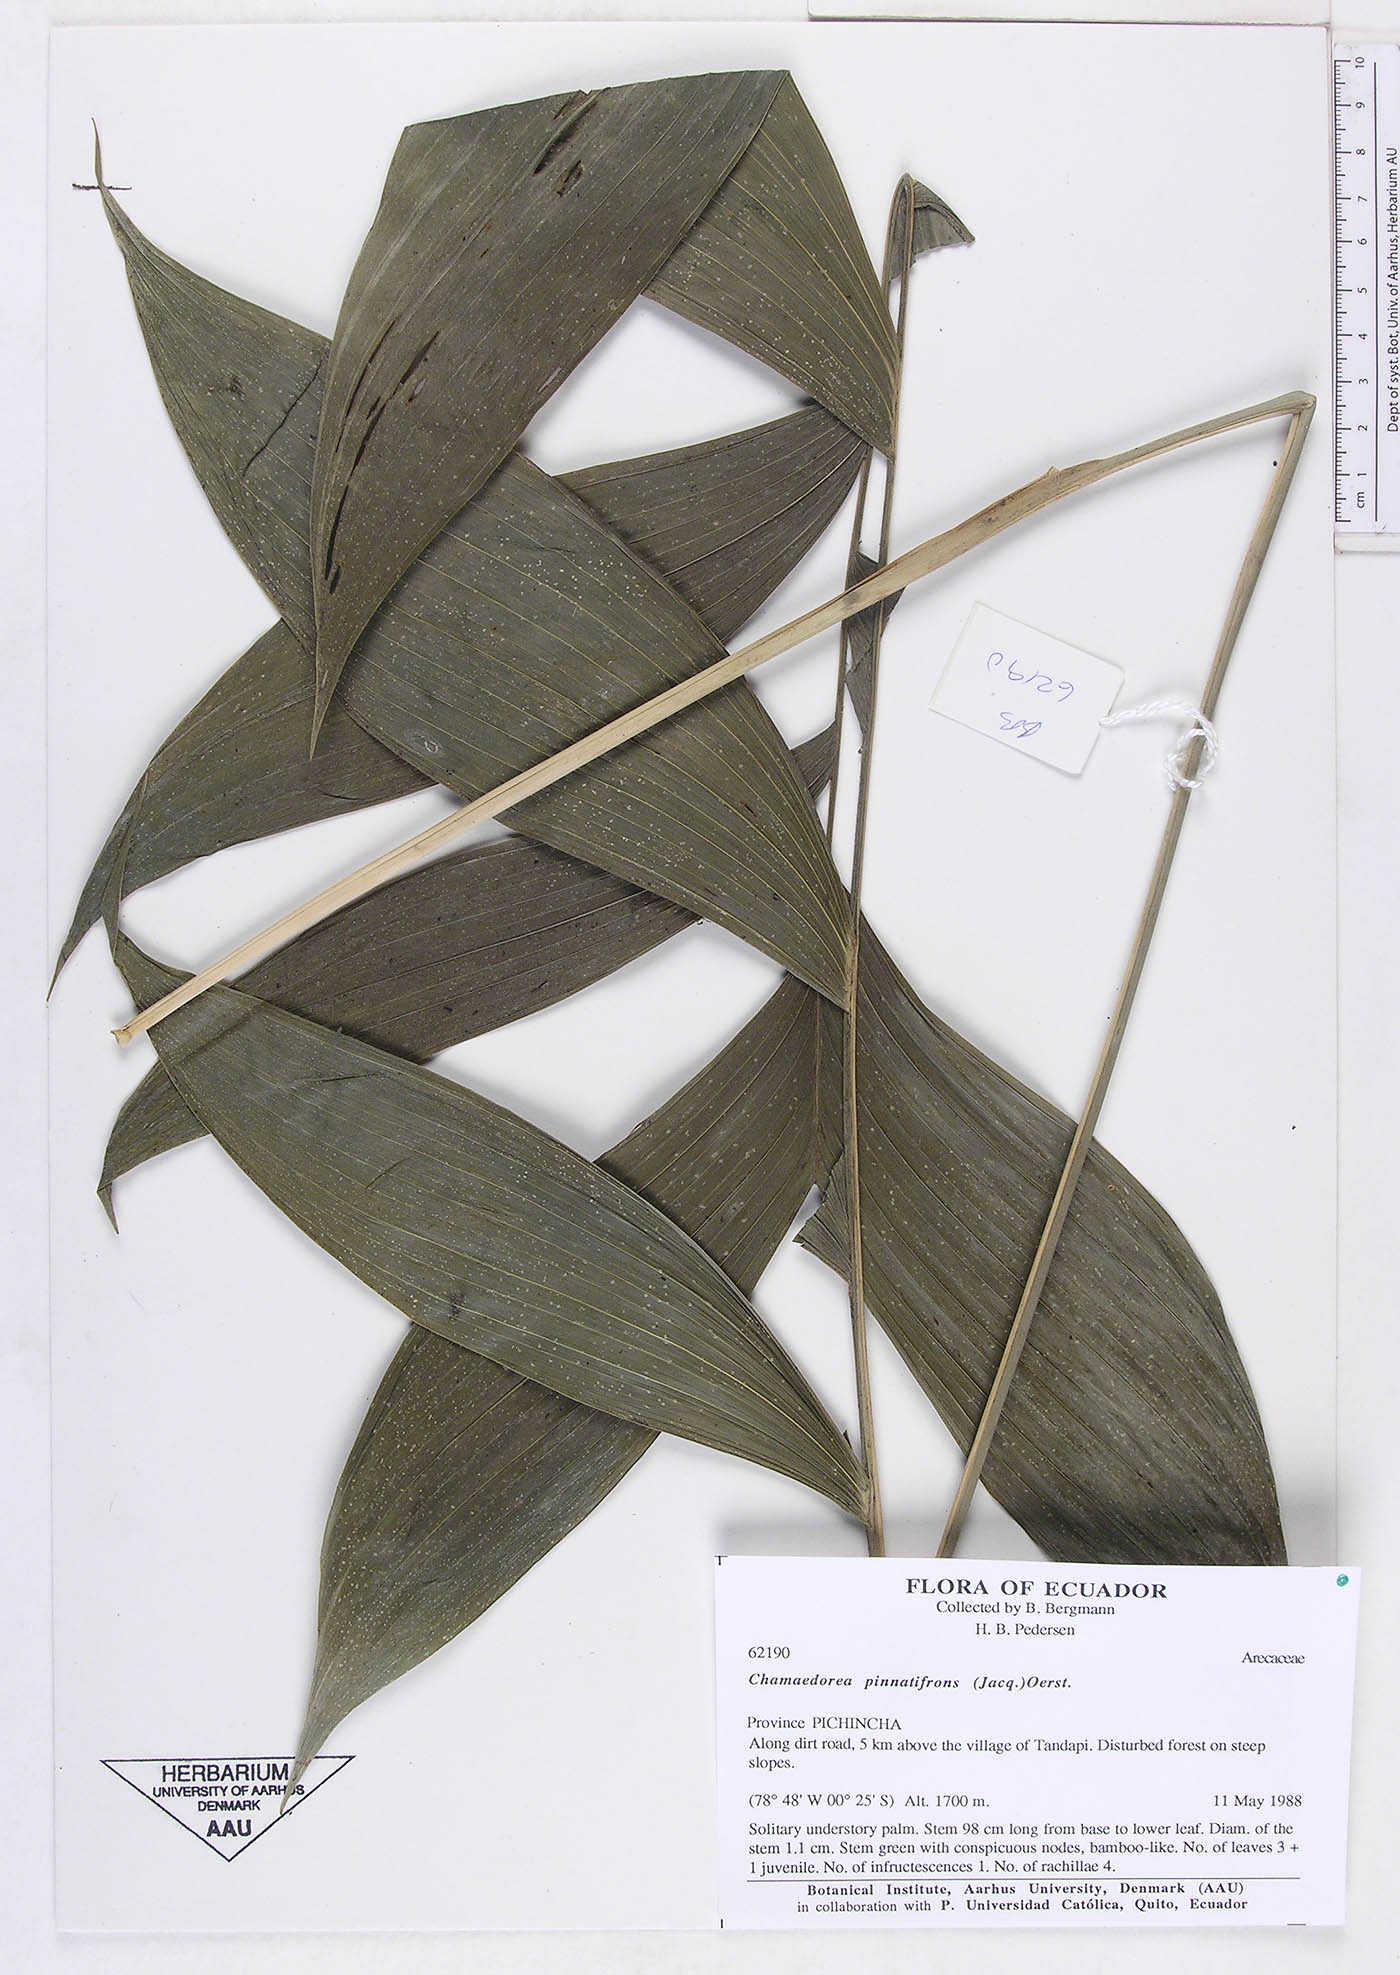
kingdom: Plantae
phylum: Tracheophyta
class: Liliopsida
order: Arecales
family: Arecaceae
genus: Chamaedorea
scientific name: Chamaedorea pinnatifrons
